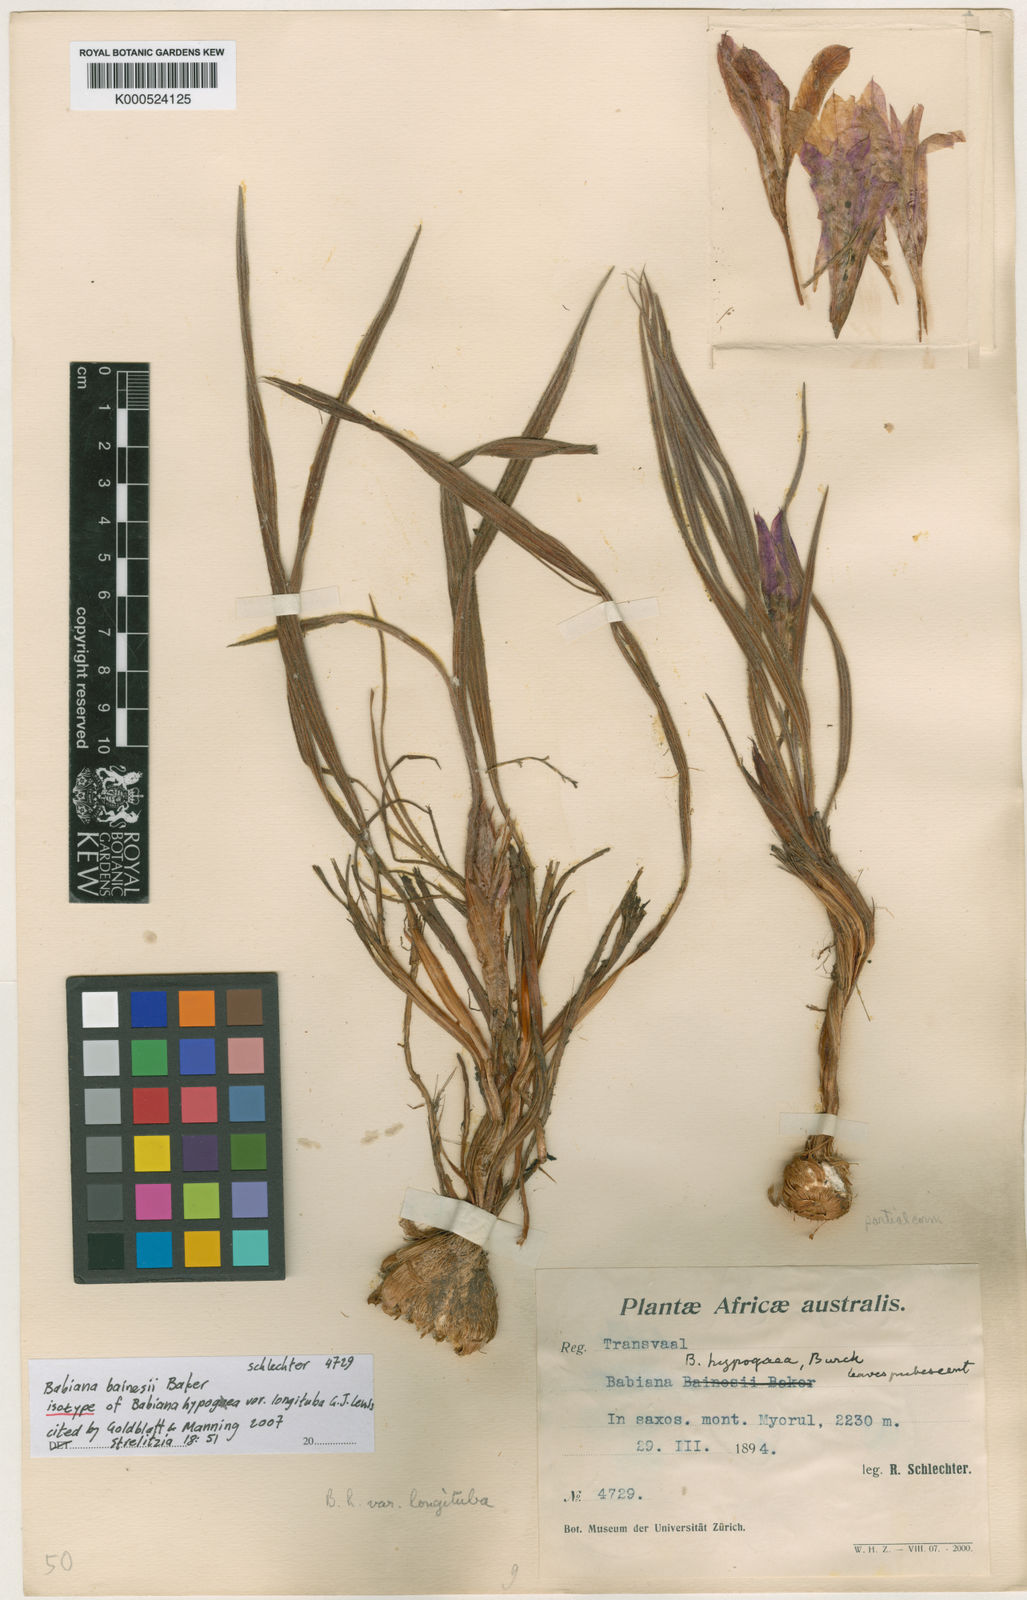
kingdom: Plantae
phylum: Tracheophyta
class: Liliopsida
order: Asparagales
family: Iridaceae
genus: Babiana
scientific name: Babiana bainesii
